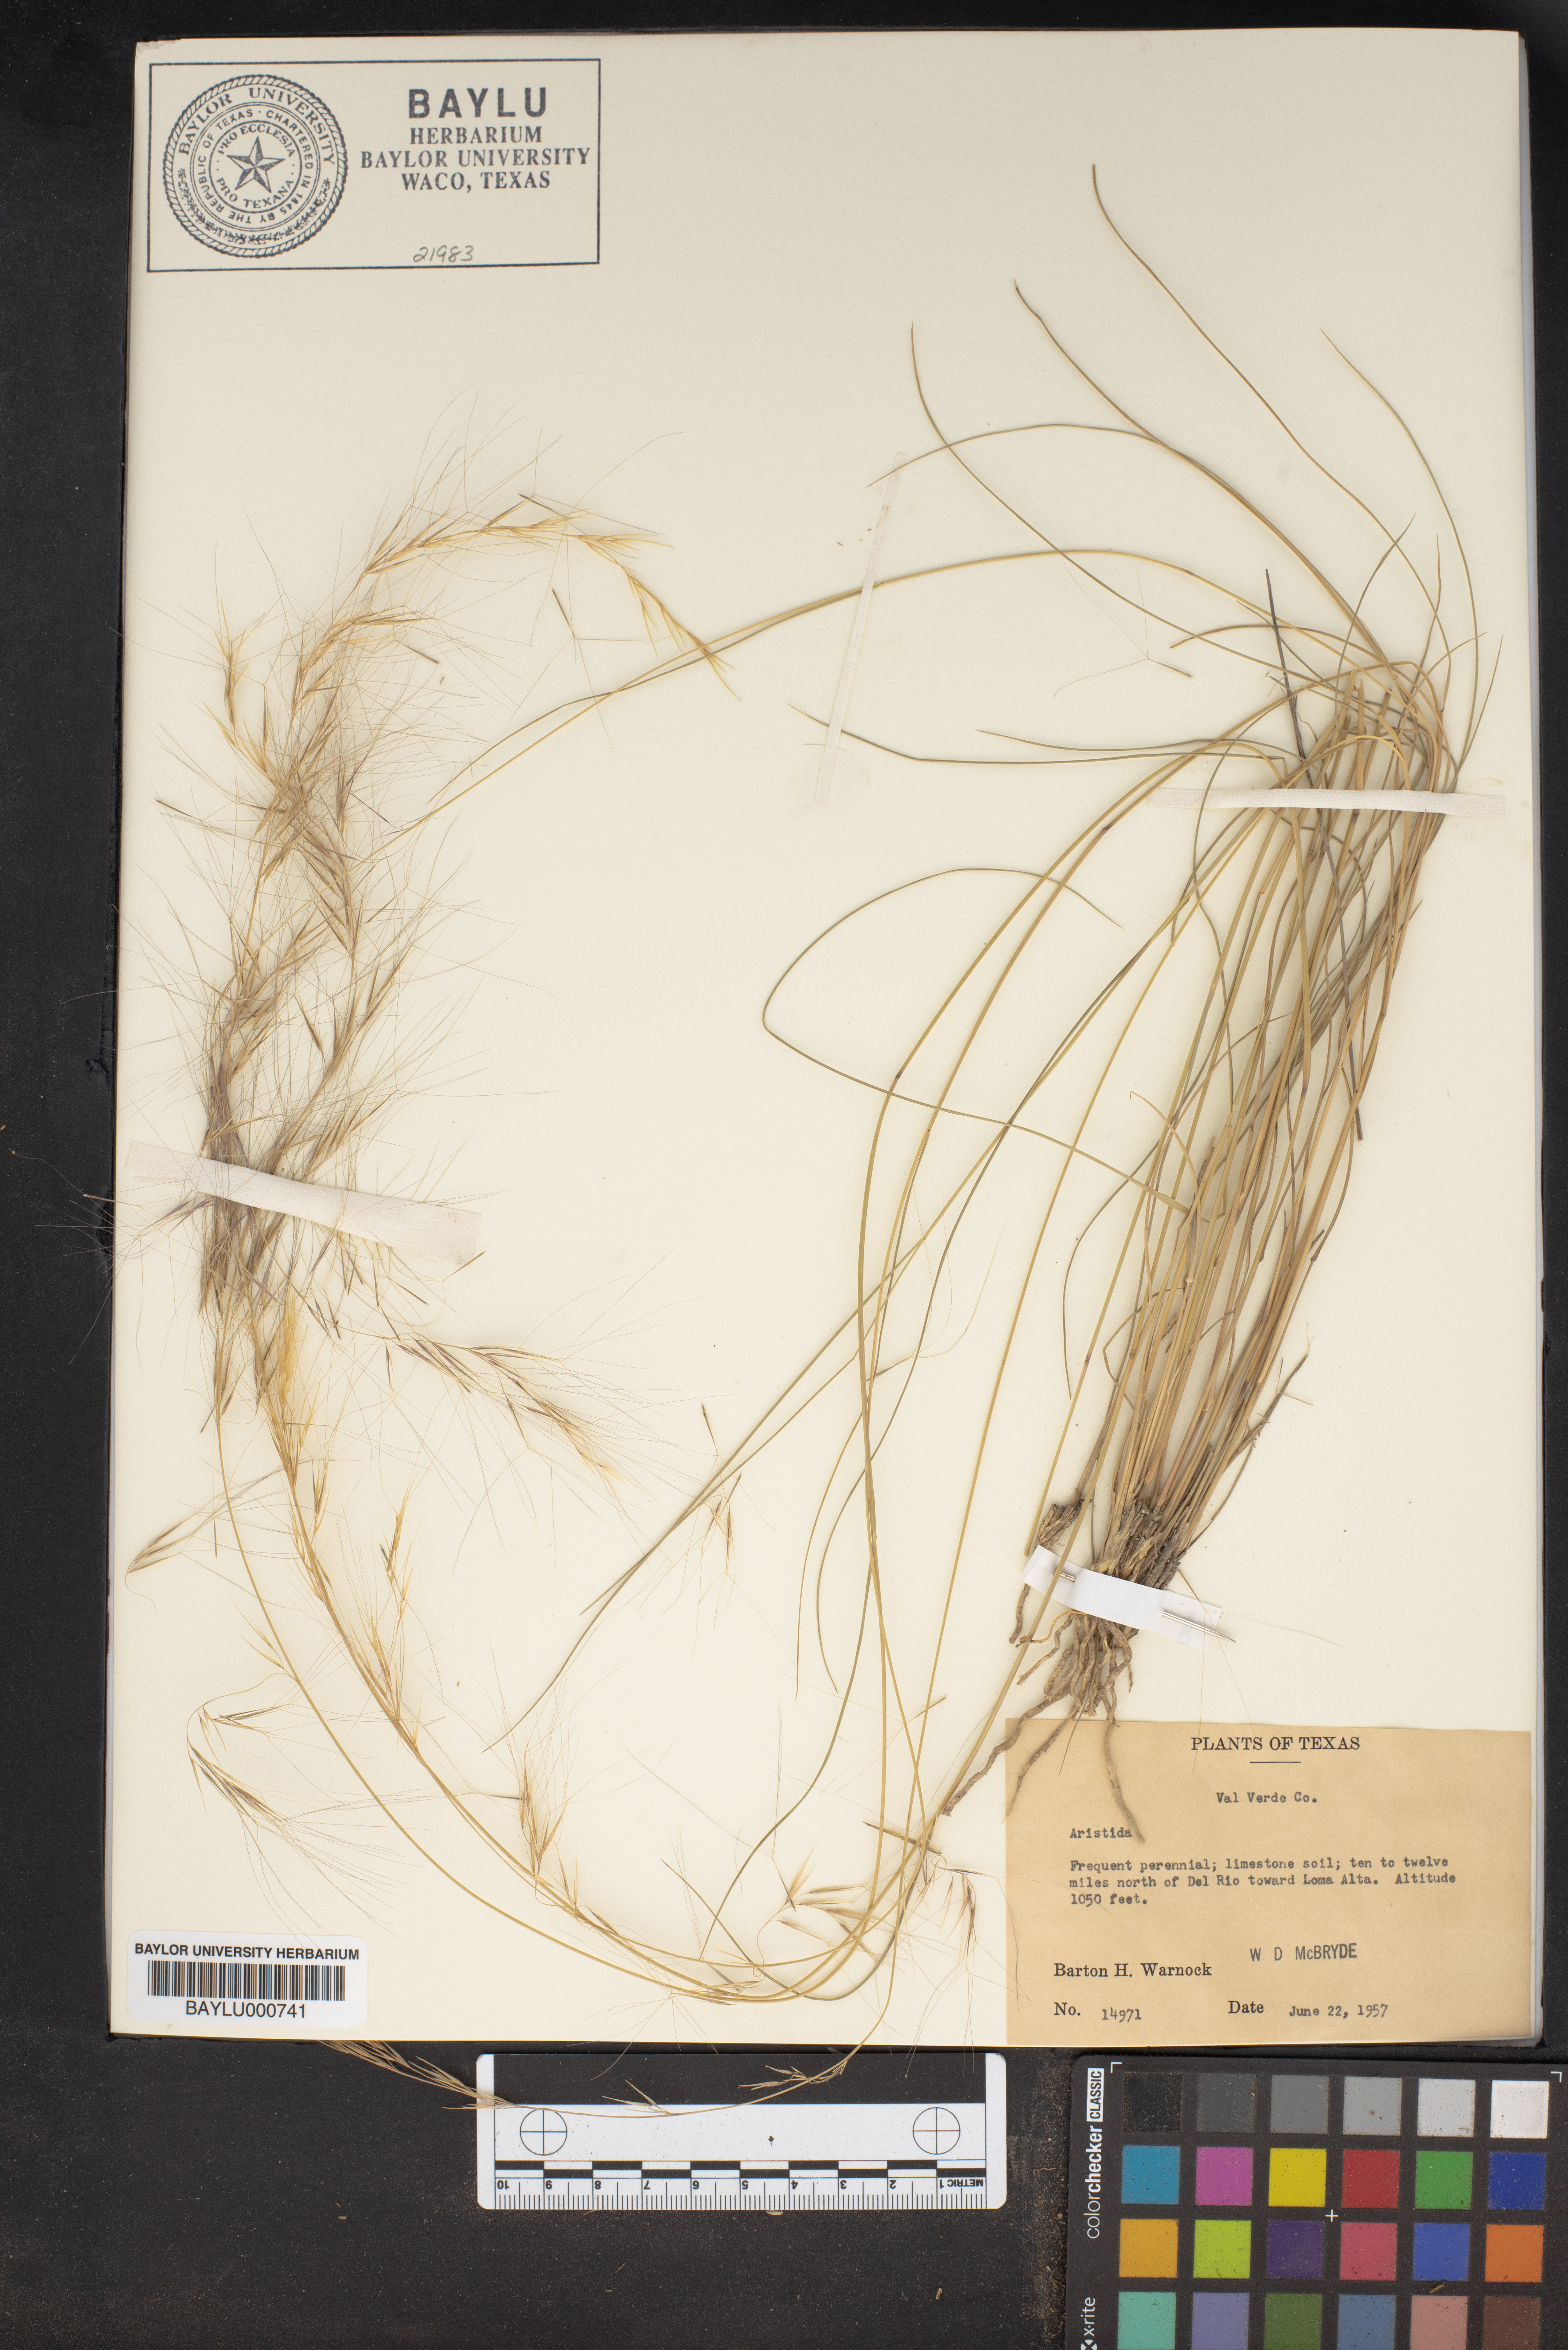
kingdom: Plantae
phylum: Tracheophyta
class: Liliopsida
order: Poales
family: Poaceae
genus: Aristida
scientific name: Aristida
